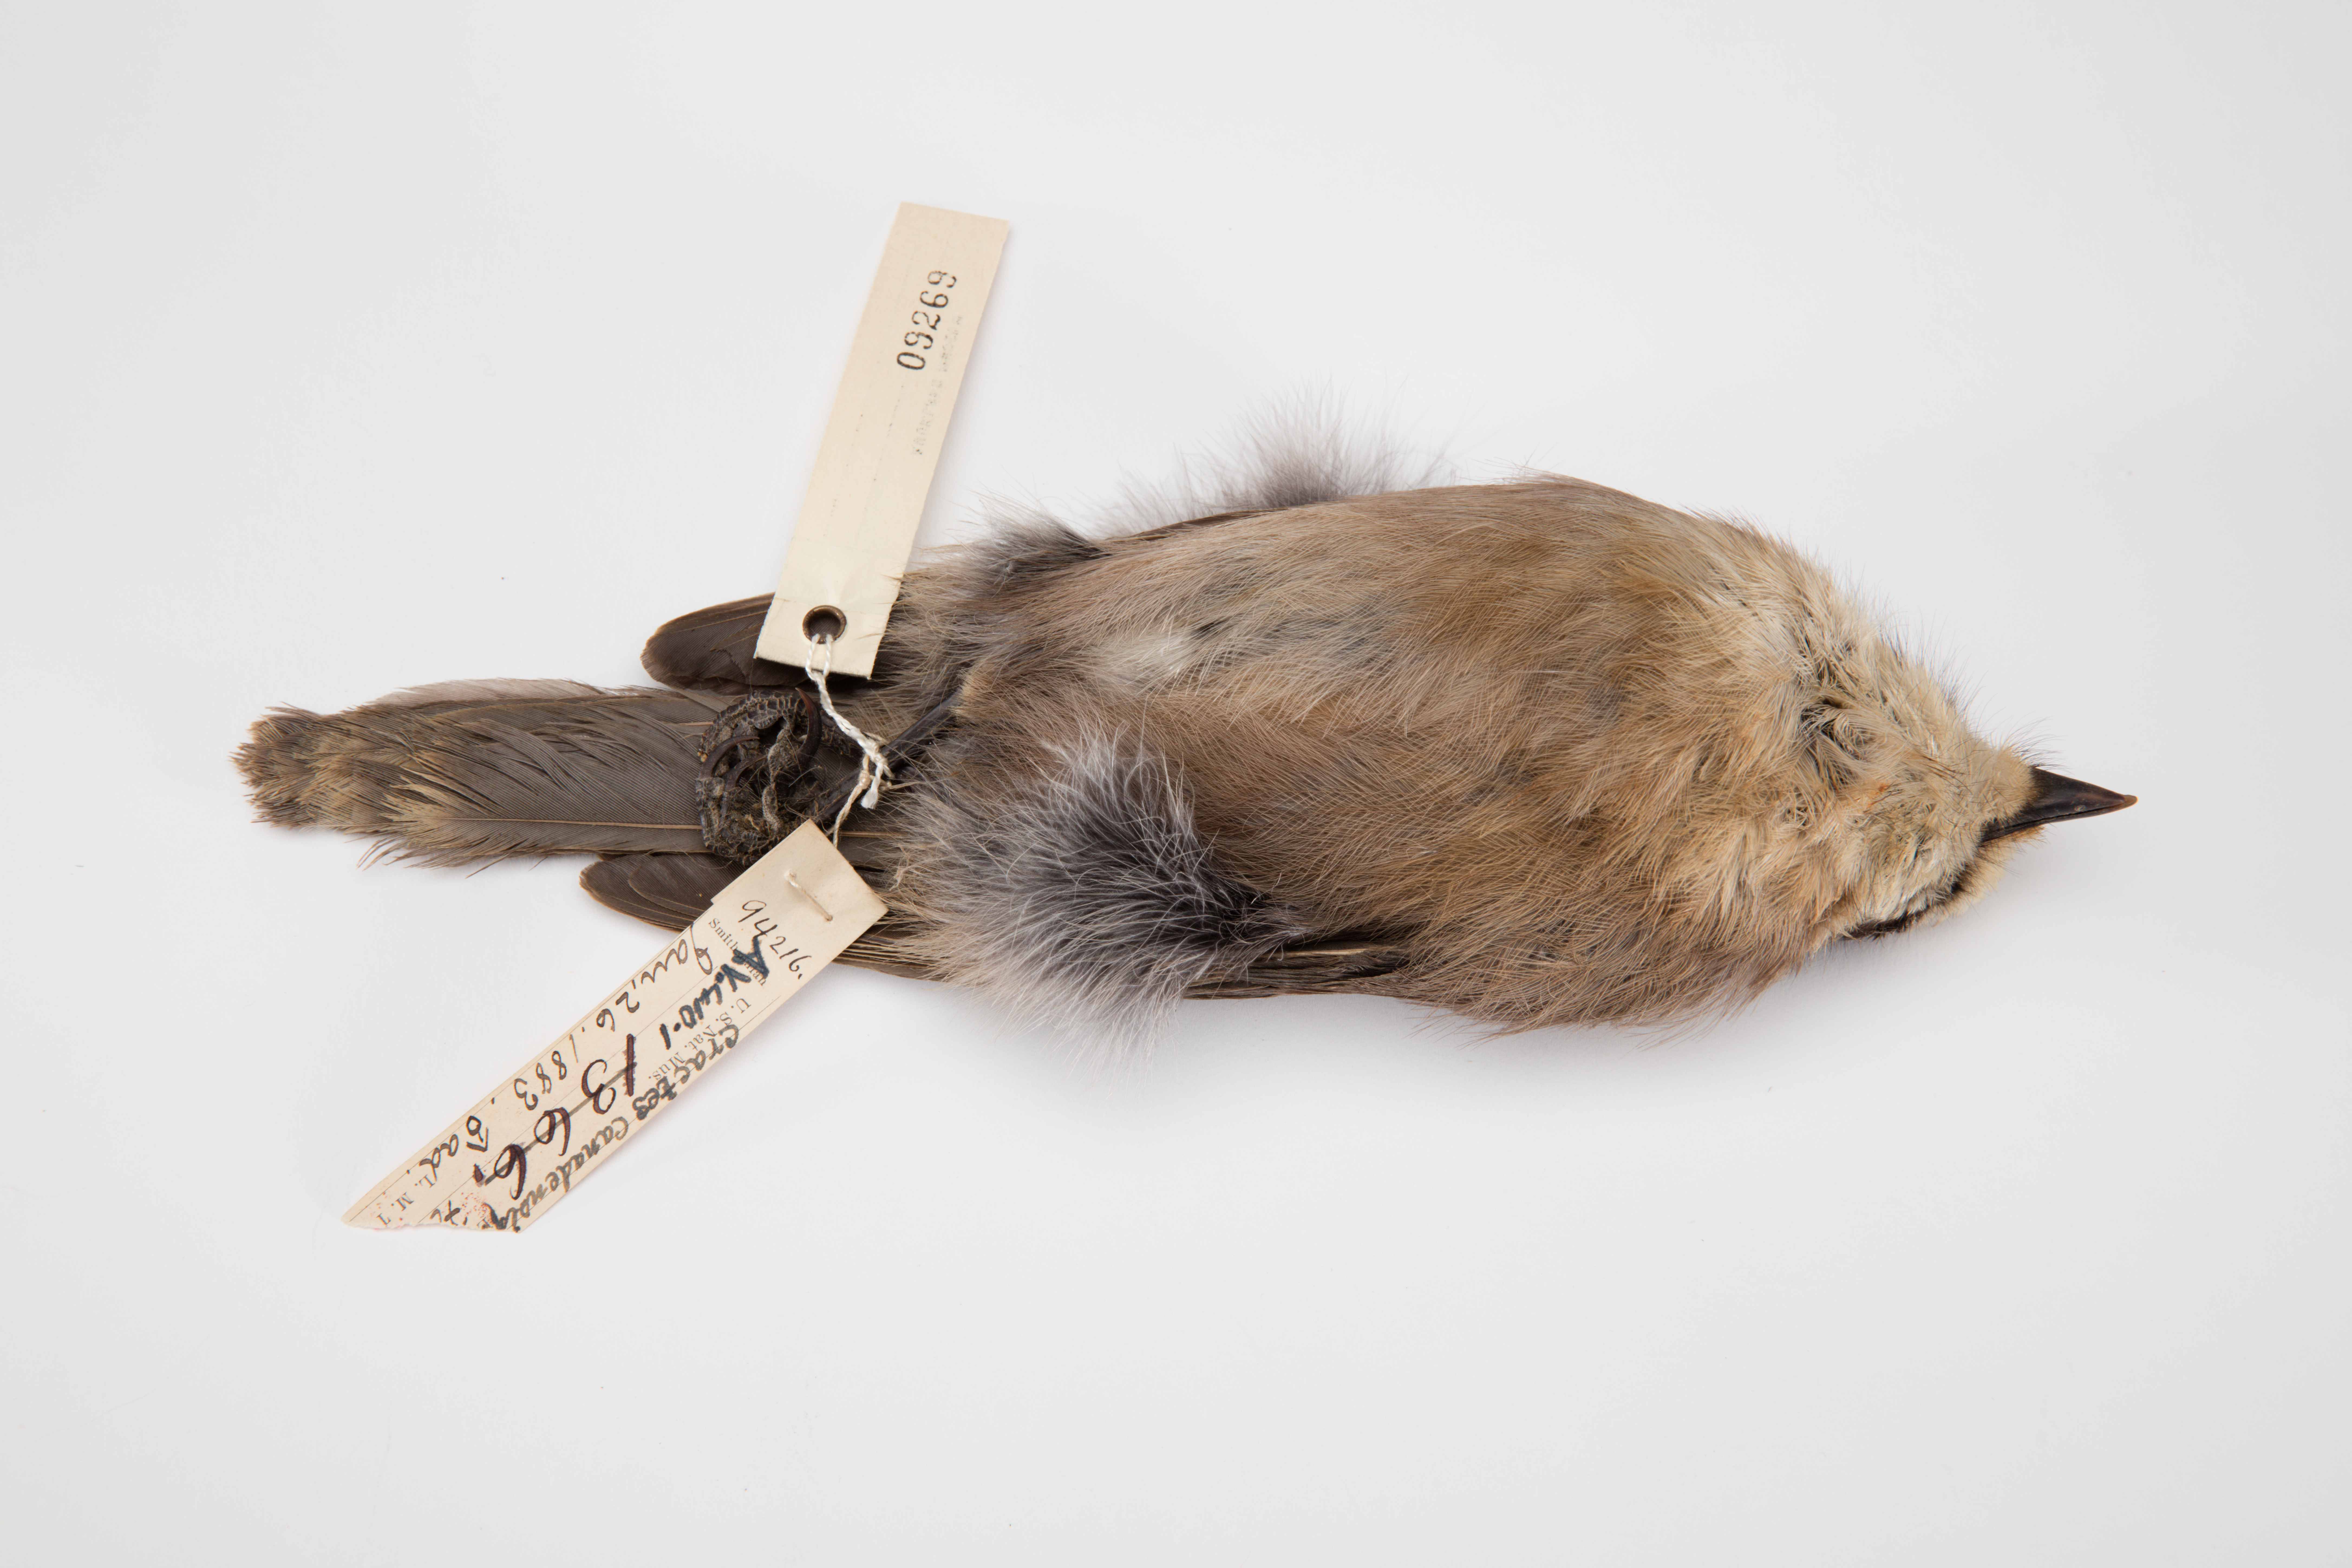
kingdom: Animalia
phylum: Chordata
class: Aves
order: Passeriformes
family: Corvidae
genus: Perisoreus
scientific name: Perisoreus canadensis
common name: Gray jay
